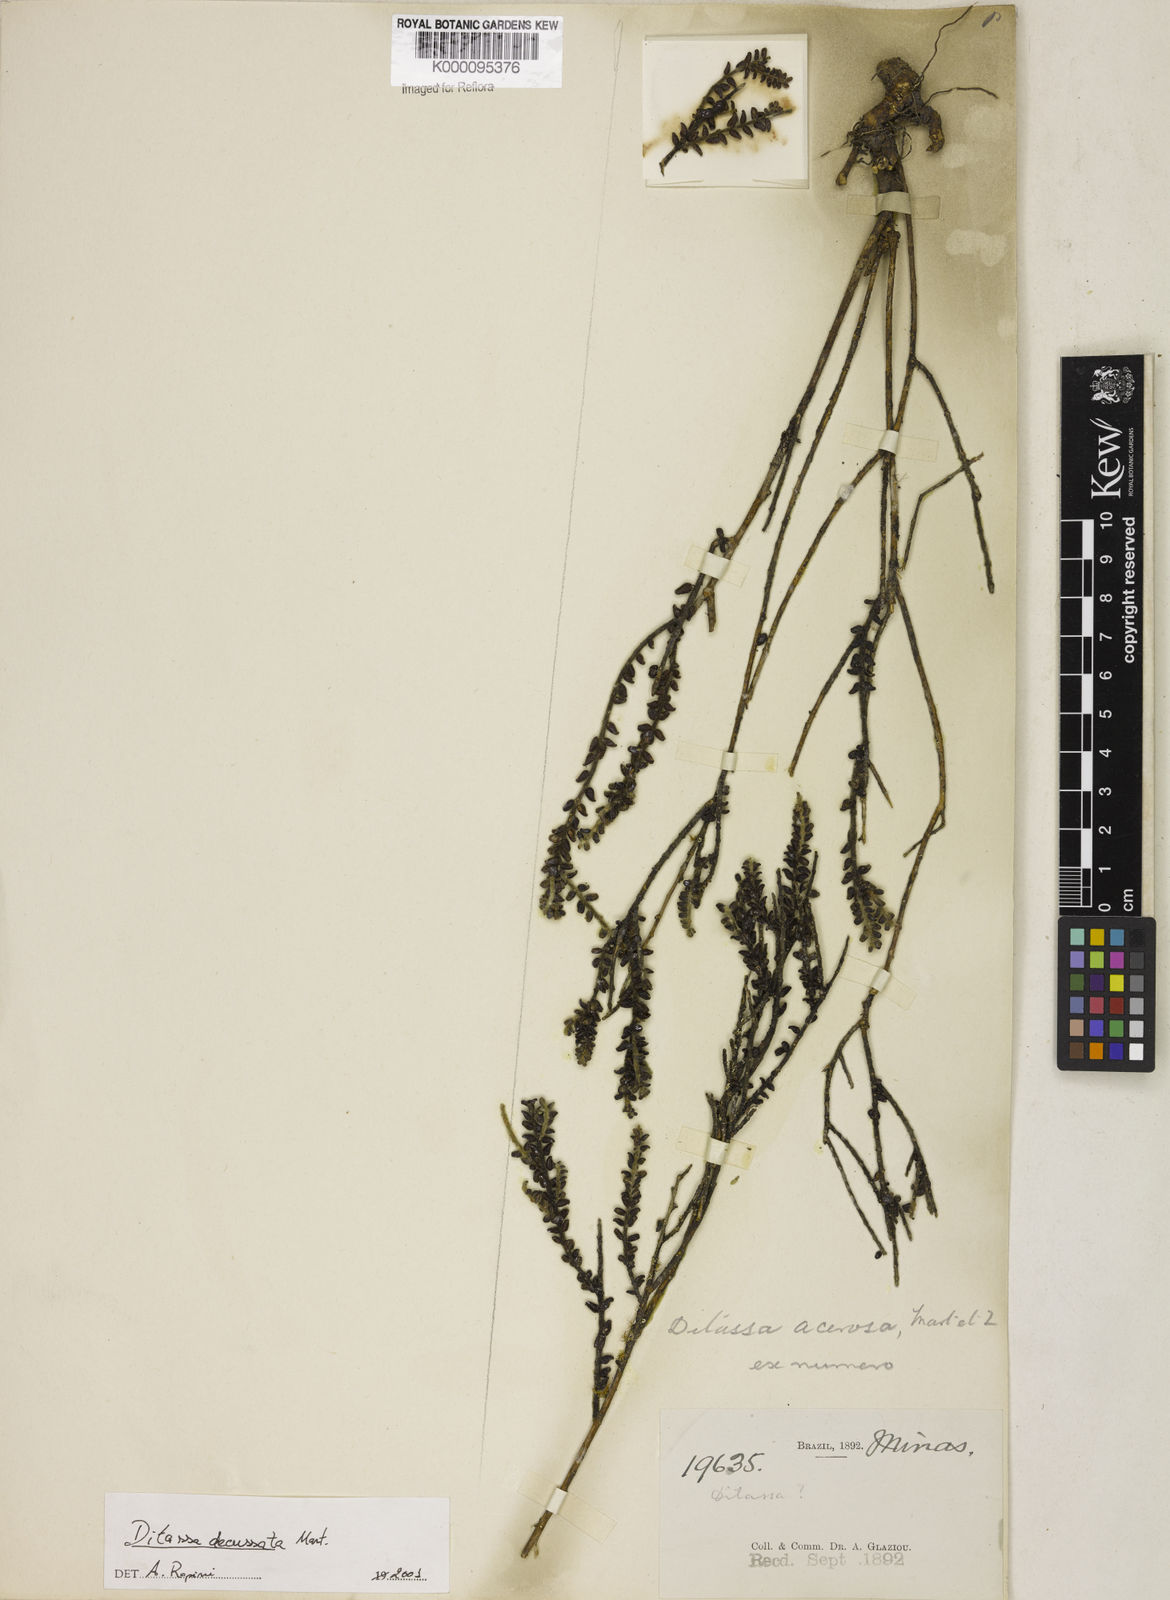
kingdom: Plantae
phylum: Tracheophyta
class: Magnoliopsida
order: Gentianales
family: Apocynaceae
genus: Minaria
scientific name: Minaria acerosa
